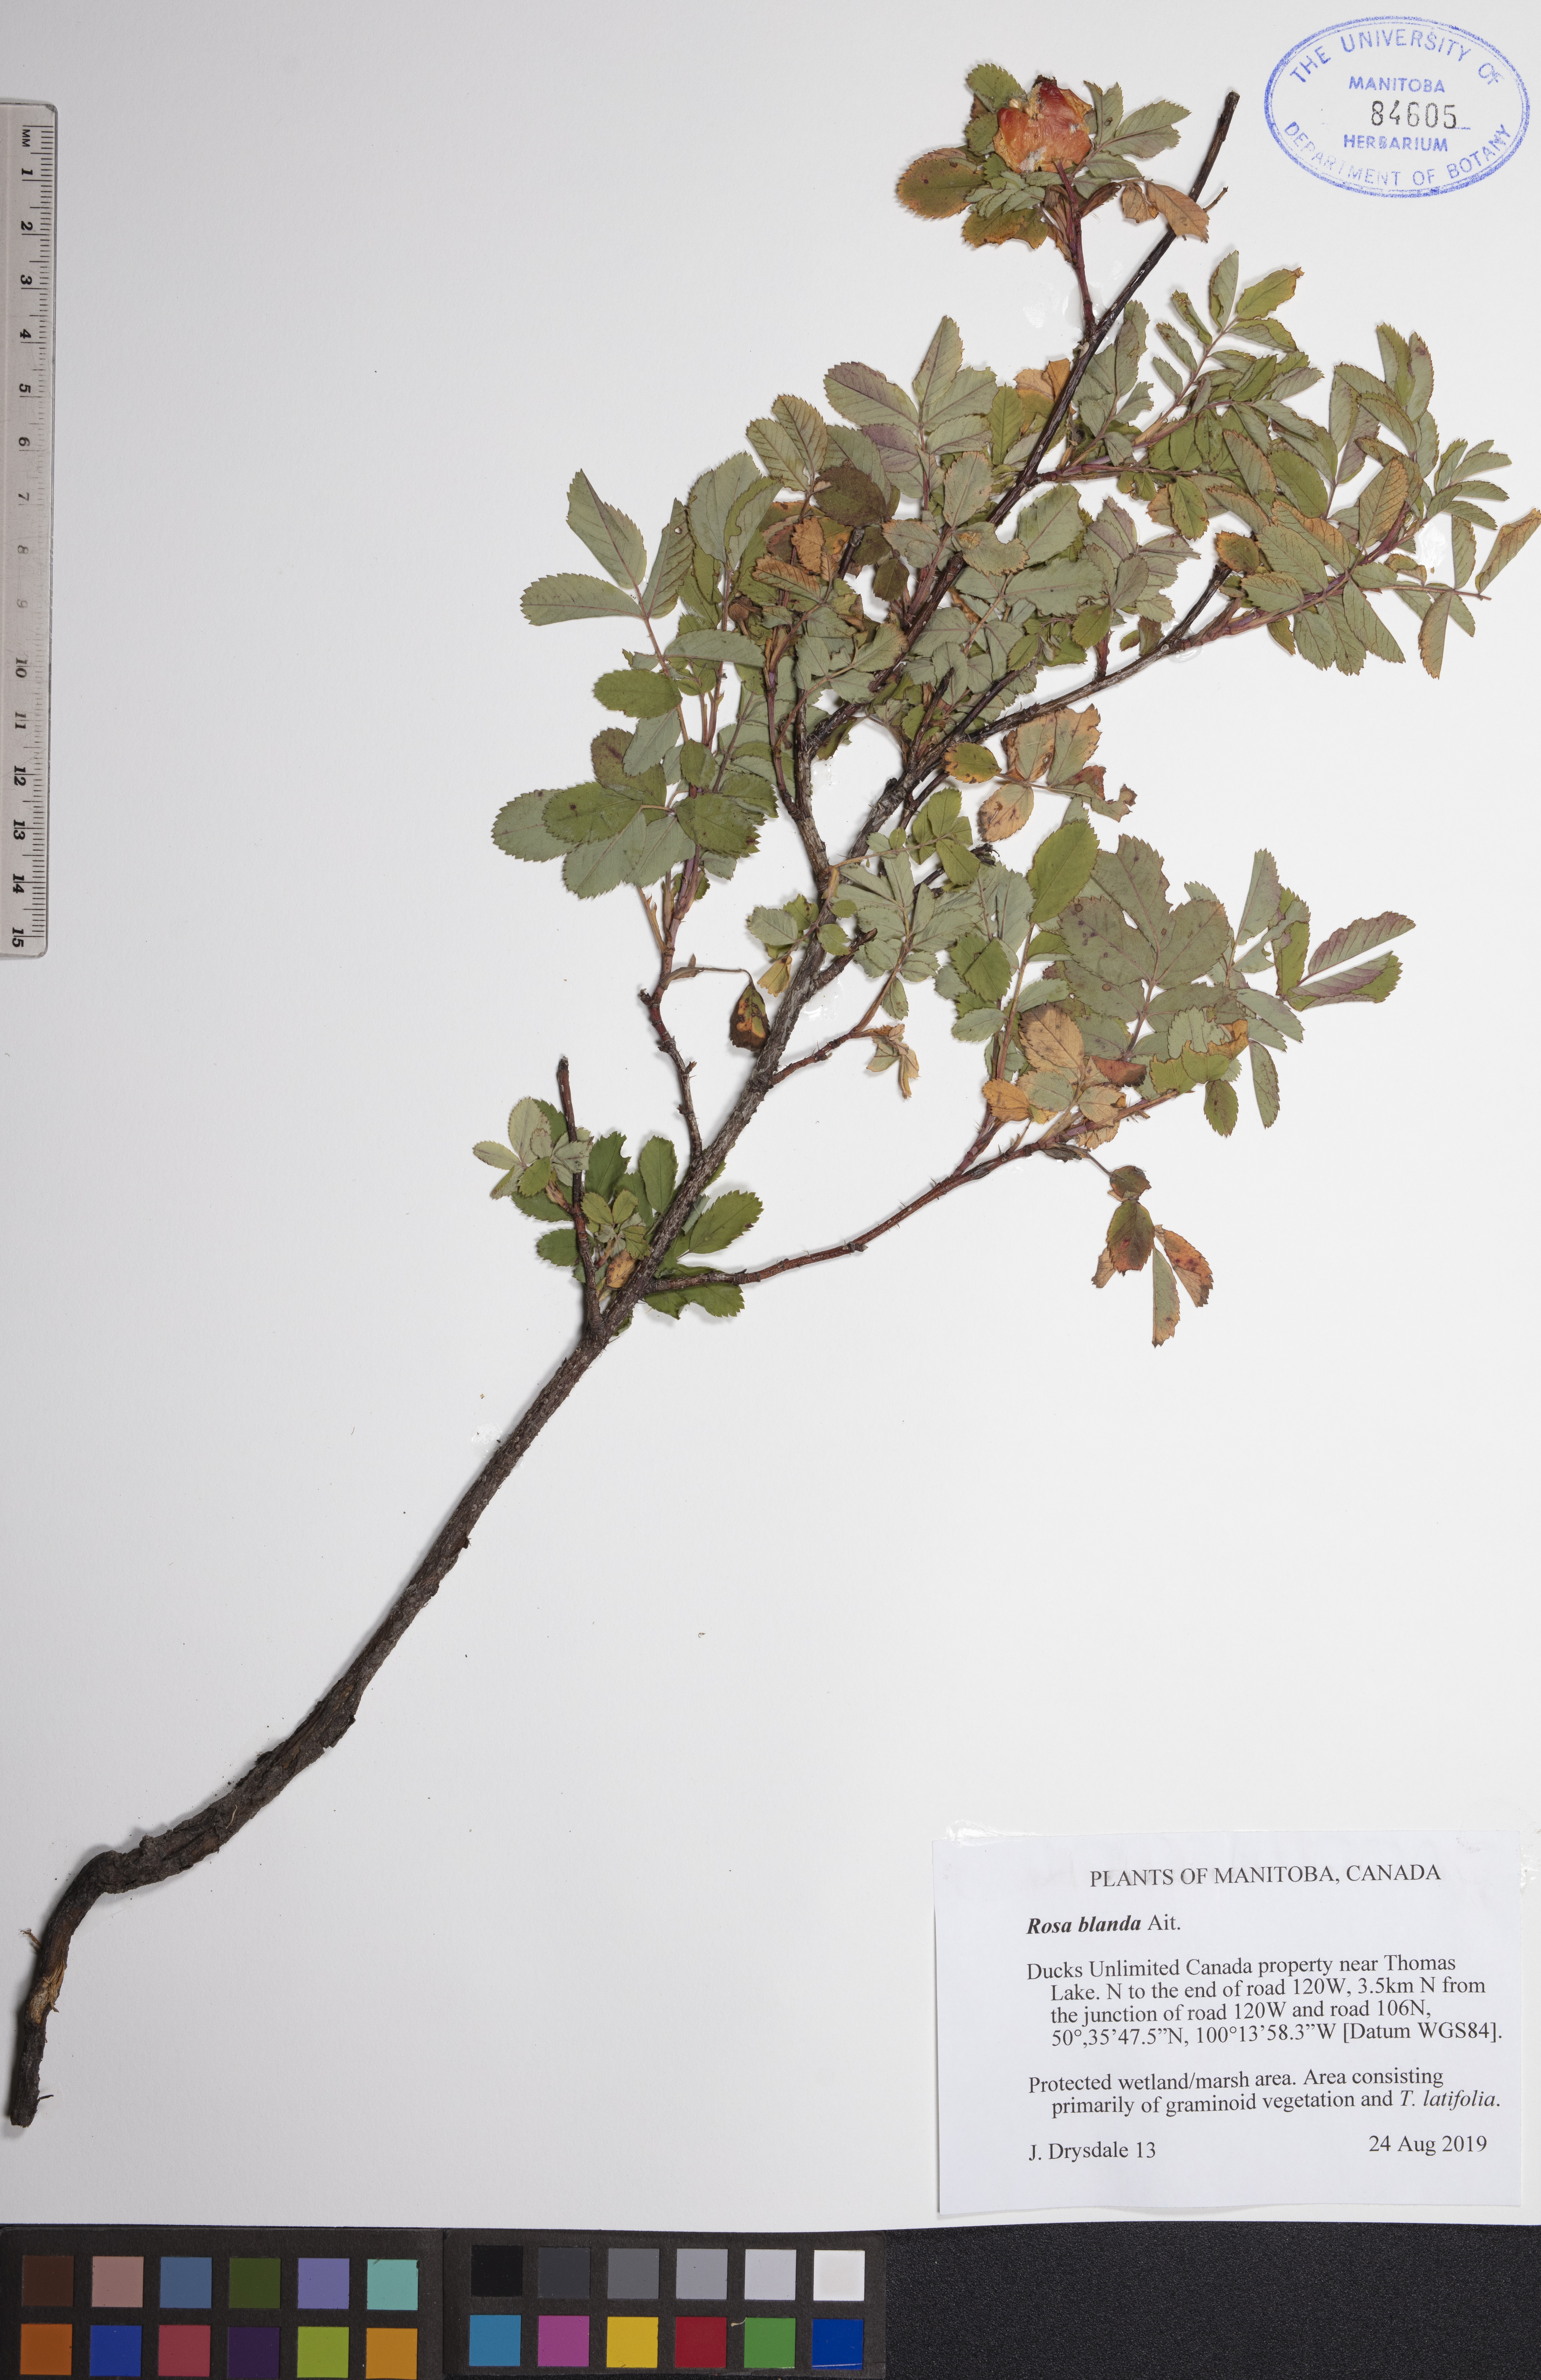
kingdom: Plantae
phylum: Tracheophyta
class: Magnoliopsida
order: Rosales
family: Rosaceae
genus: Rosa
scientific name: Rosa blanda
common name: Smooth rose
